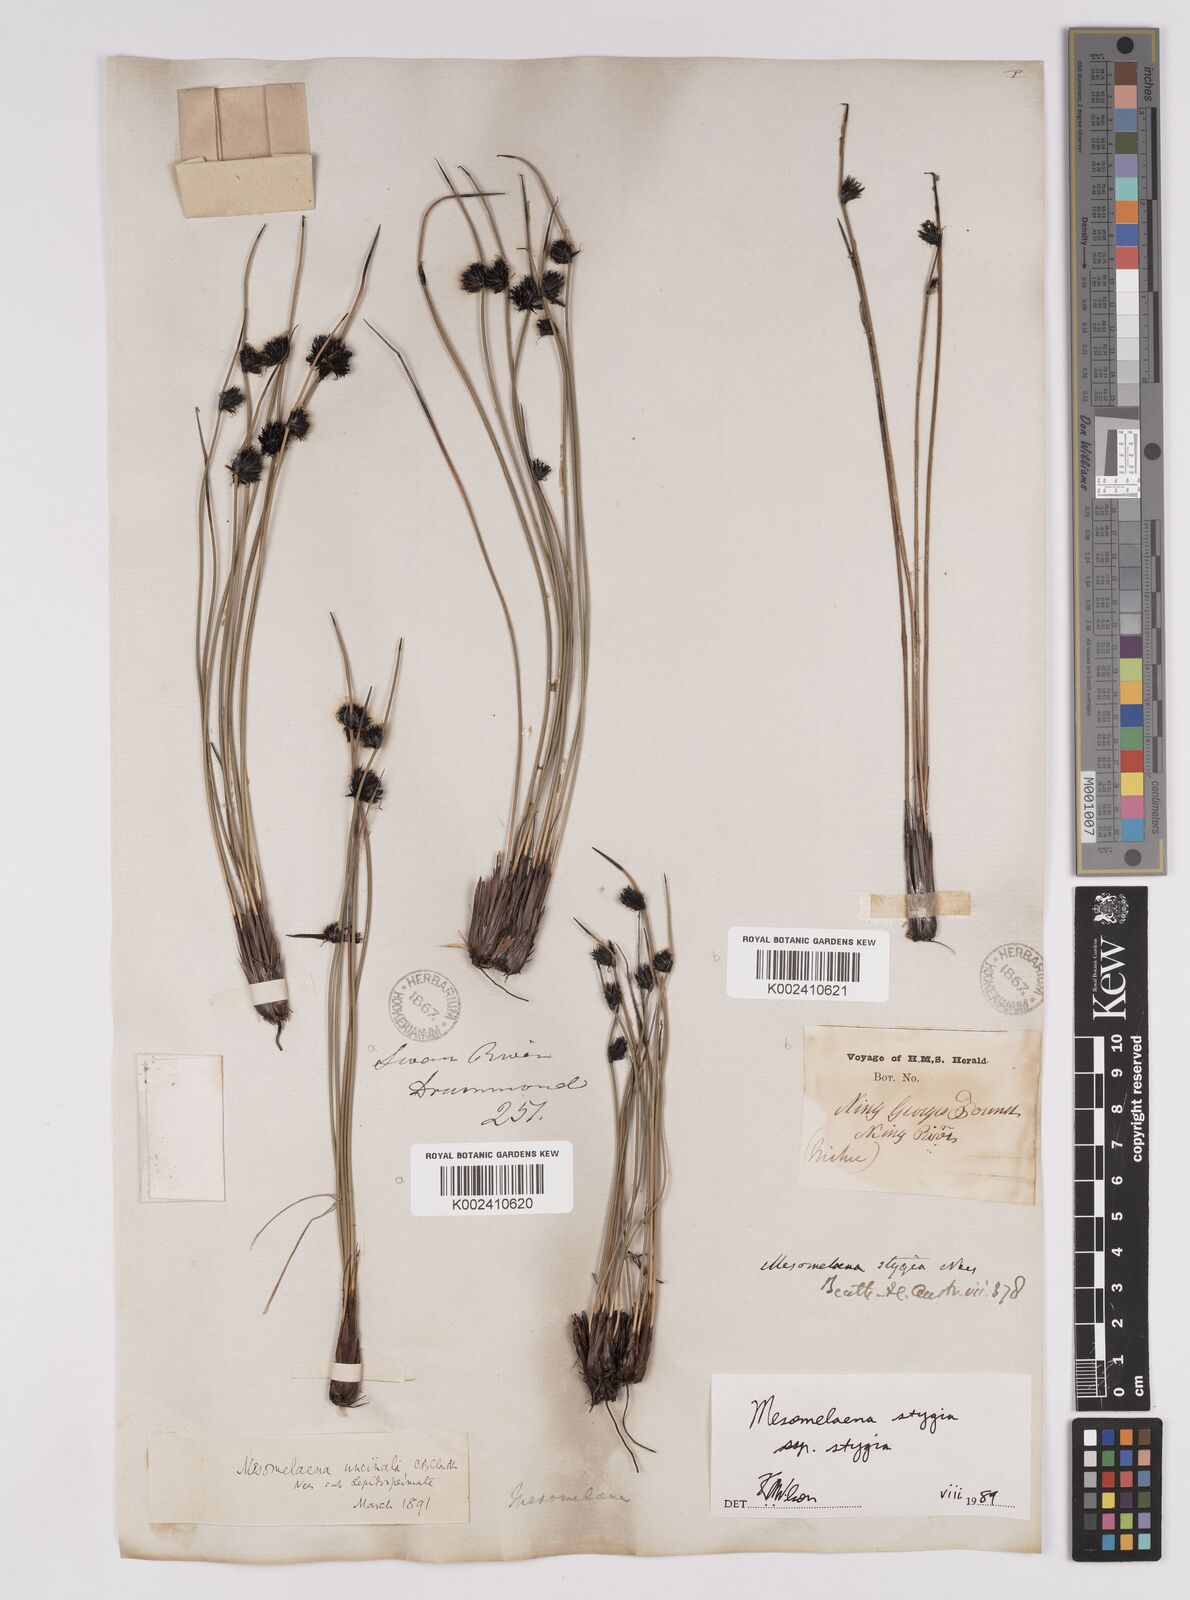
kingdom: Plantae
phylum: Tracheophyta
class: Liliopsida
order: Poales
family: Cyperaceae
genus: Mesomelaena
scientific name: Mesomelaena stygia
